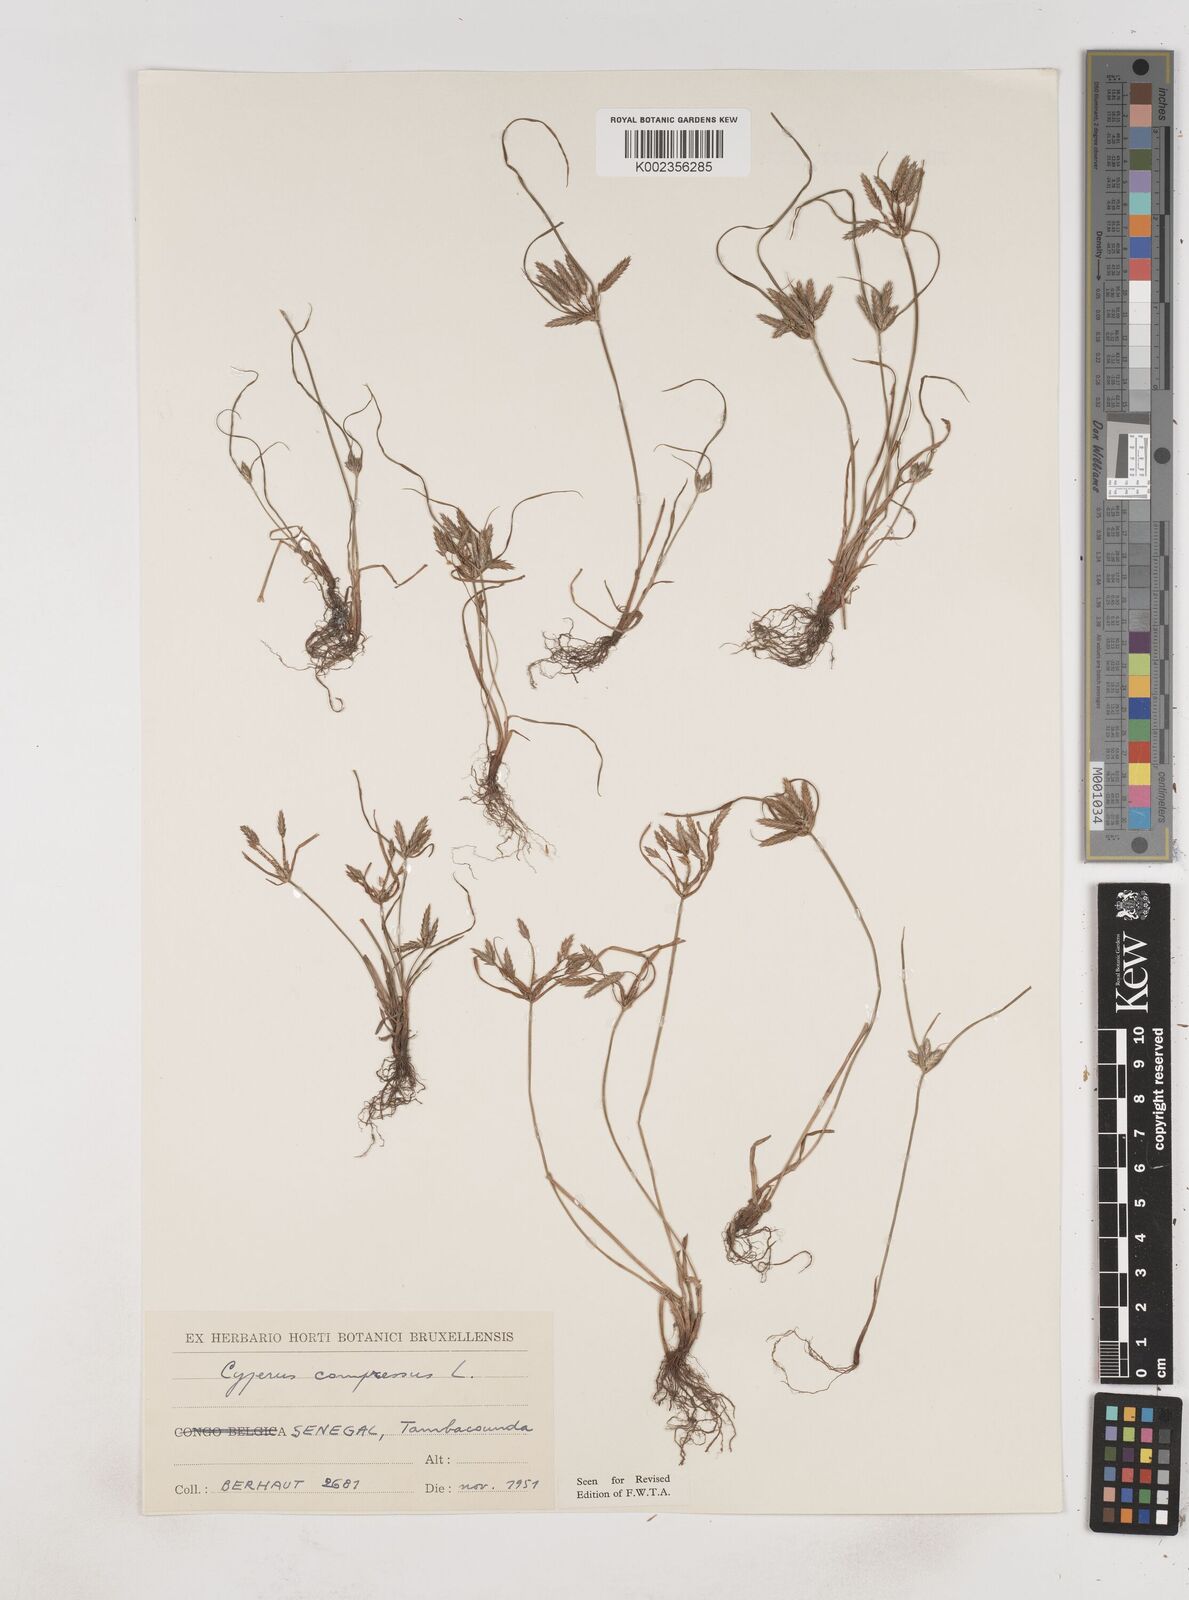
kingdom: Plantae
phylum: Tracheophyta
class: Liliopsida
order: Poales
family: Cyperaceae
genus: Cyperus
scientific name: Cyperus compressus
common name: Poorland flatsedge
